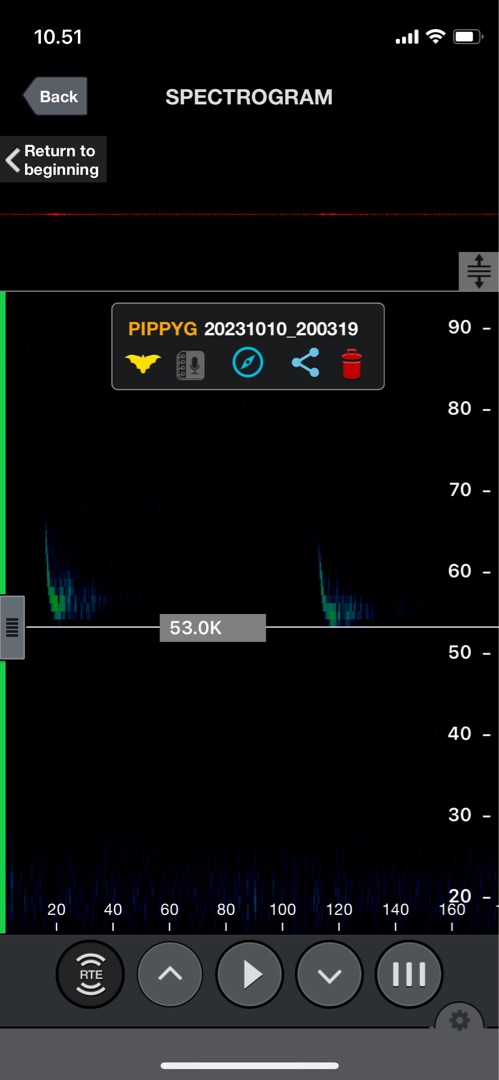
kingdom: Animalia
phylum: Chordata
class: Mammalia
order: Chiroptera
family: Vespertilionidae
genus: Pipistrellus
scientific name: Pipistrellus pygmaeus
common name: Dværgflagermus
